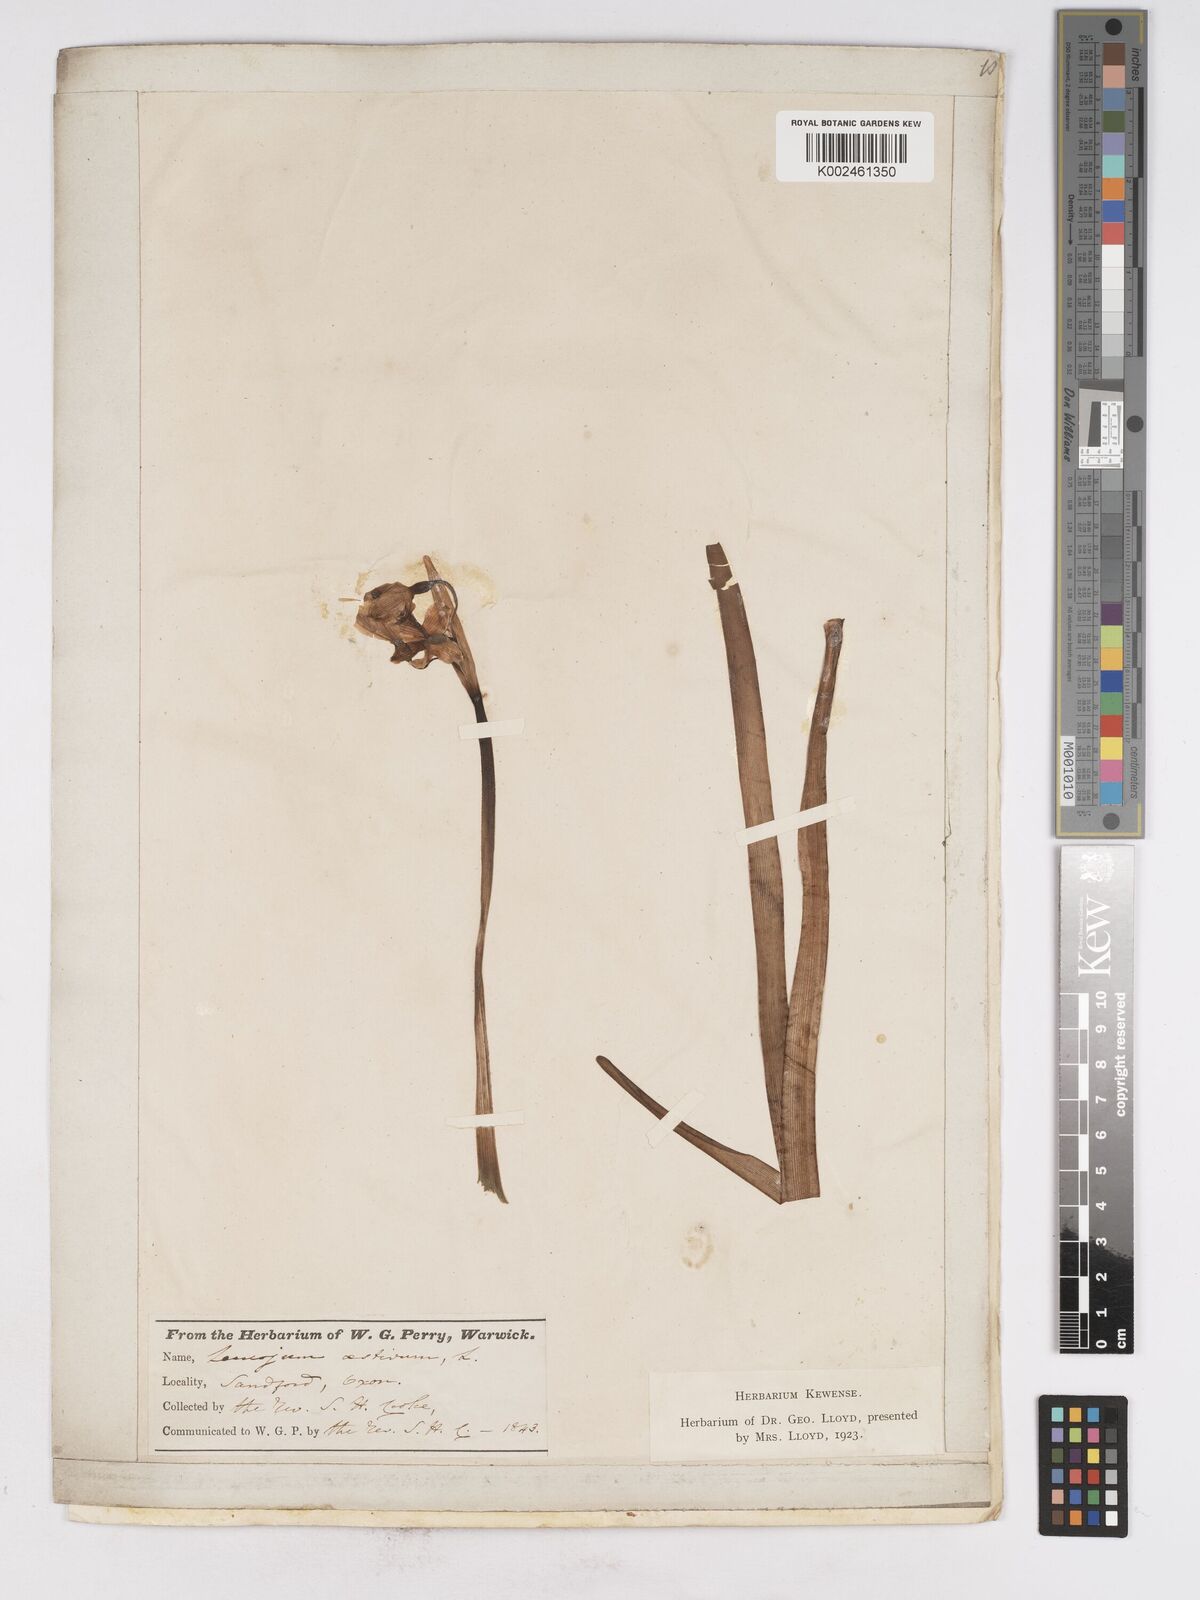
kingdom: Plantae
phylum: Tracheophyta
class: Liliopsida
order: Asparagales
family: Amaryllidaceae
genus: Leucojum
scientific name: Leucojum aestivum
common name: Summer snowflake
